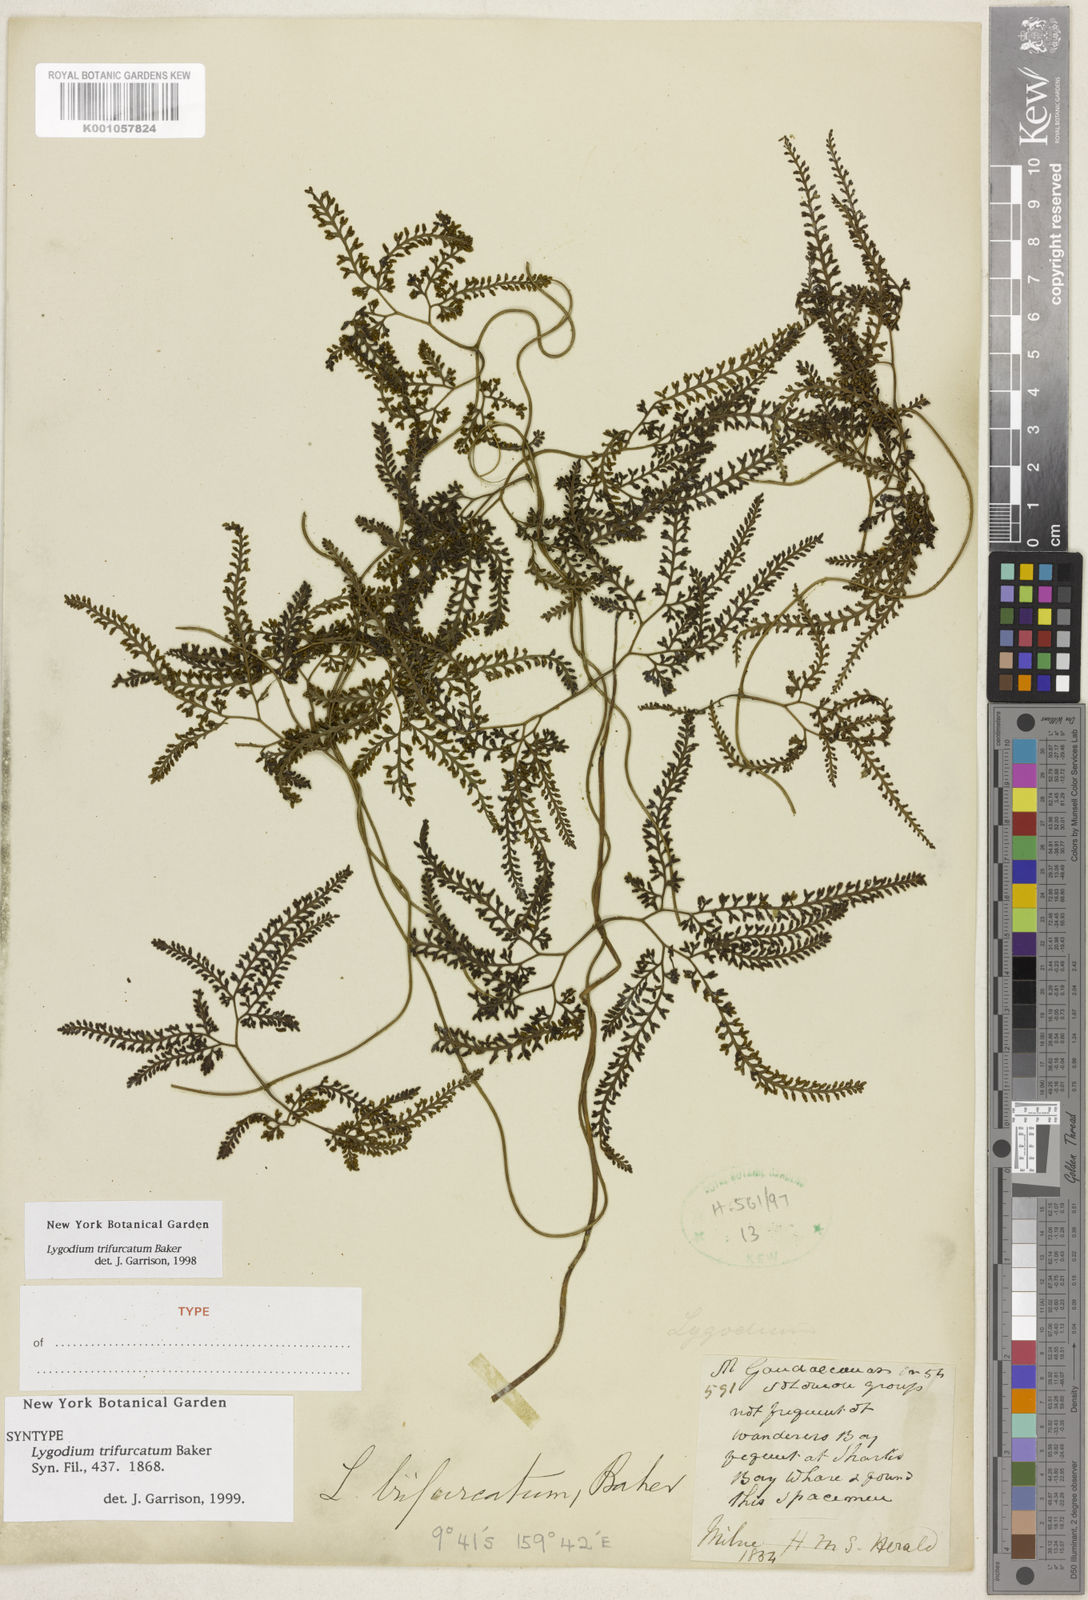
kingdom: Plantae
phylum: Tracheophyta
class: Polypodiopsida
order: Schizaeales
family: Lygodiaceae
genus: Lygodium
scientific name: Lygodium trifurcatum
